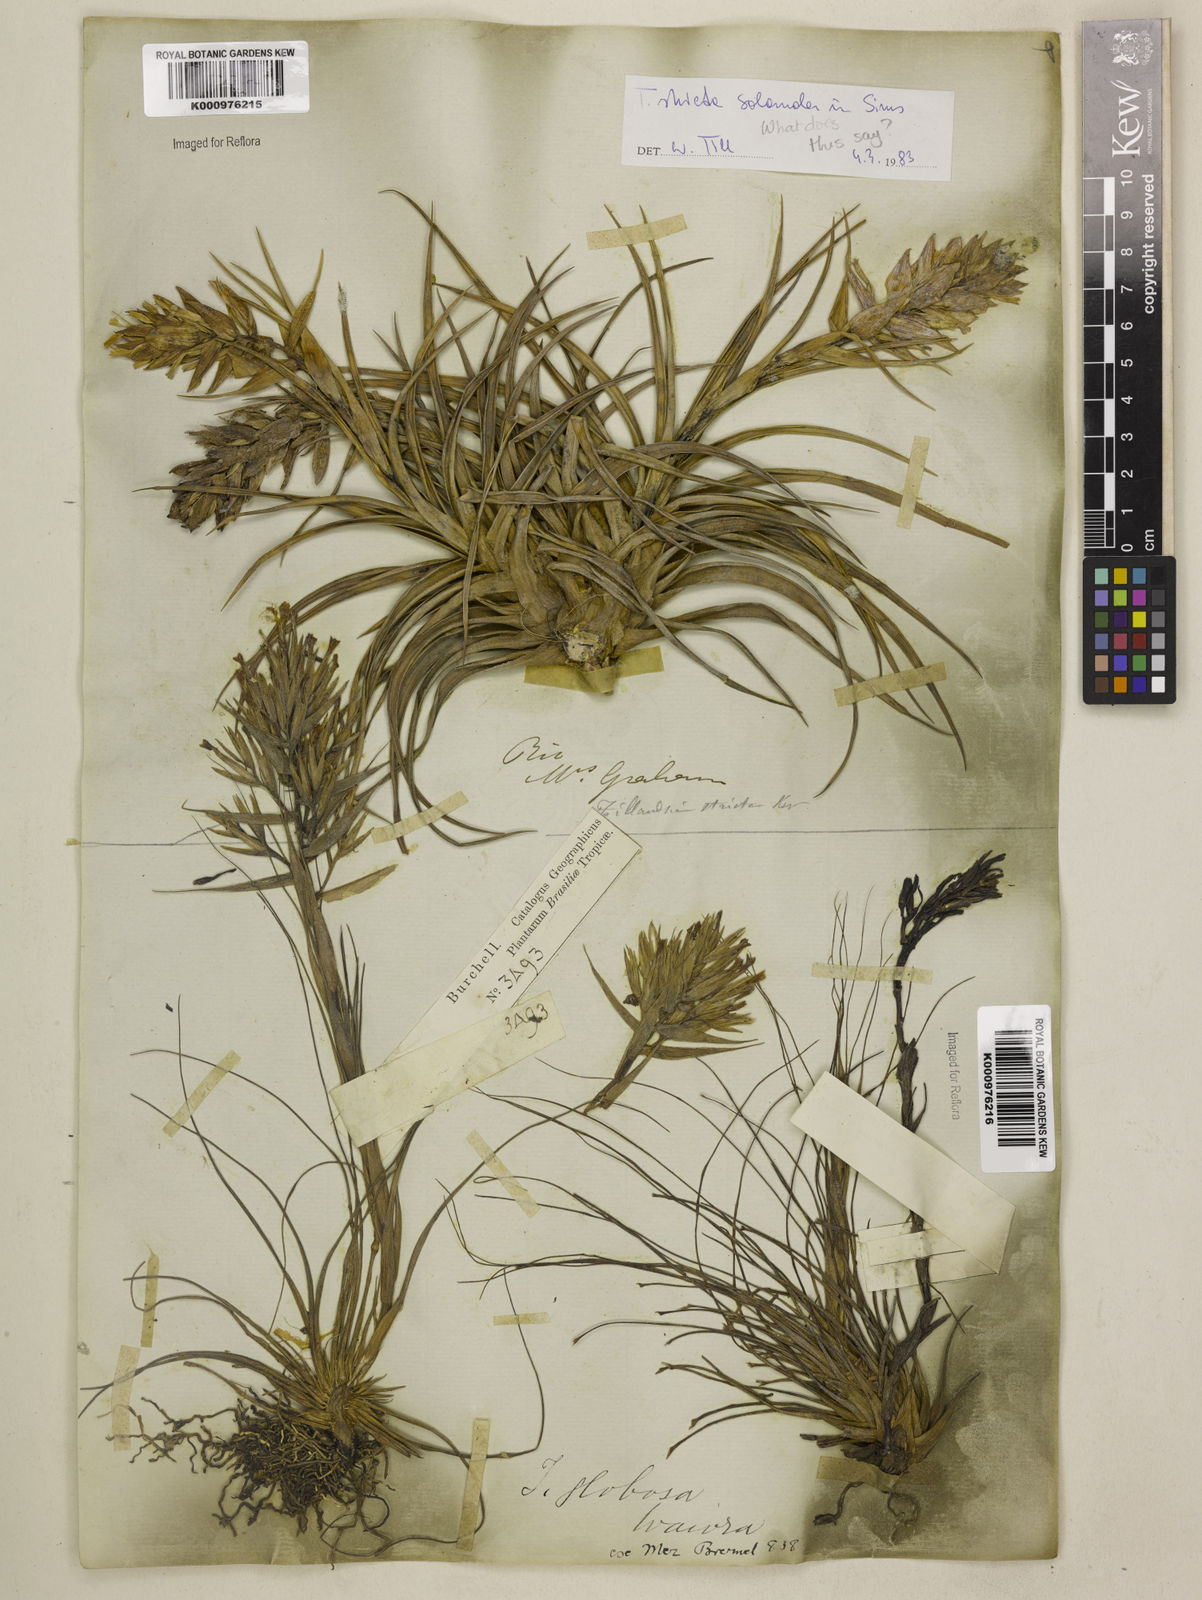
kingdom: Plantae
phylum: Tracheophyta
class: Liliopsida
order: Poales
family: Bromeliaceae
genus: Tillandsia
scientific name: Tillandsia
